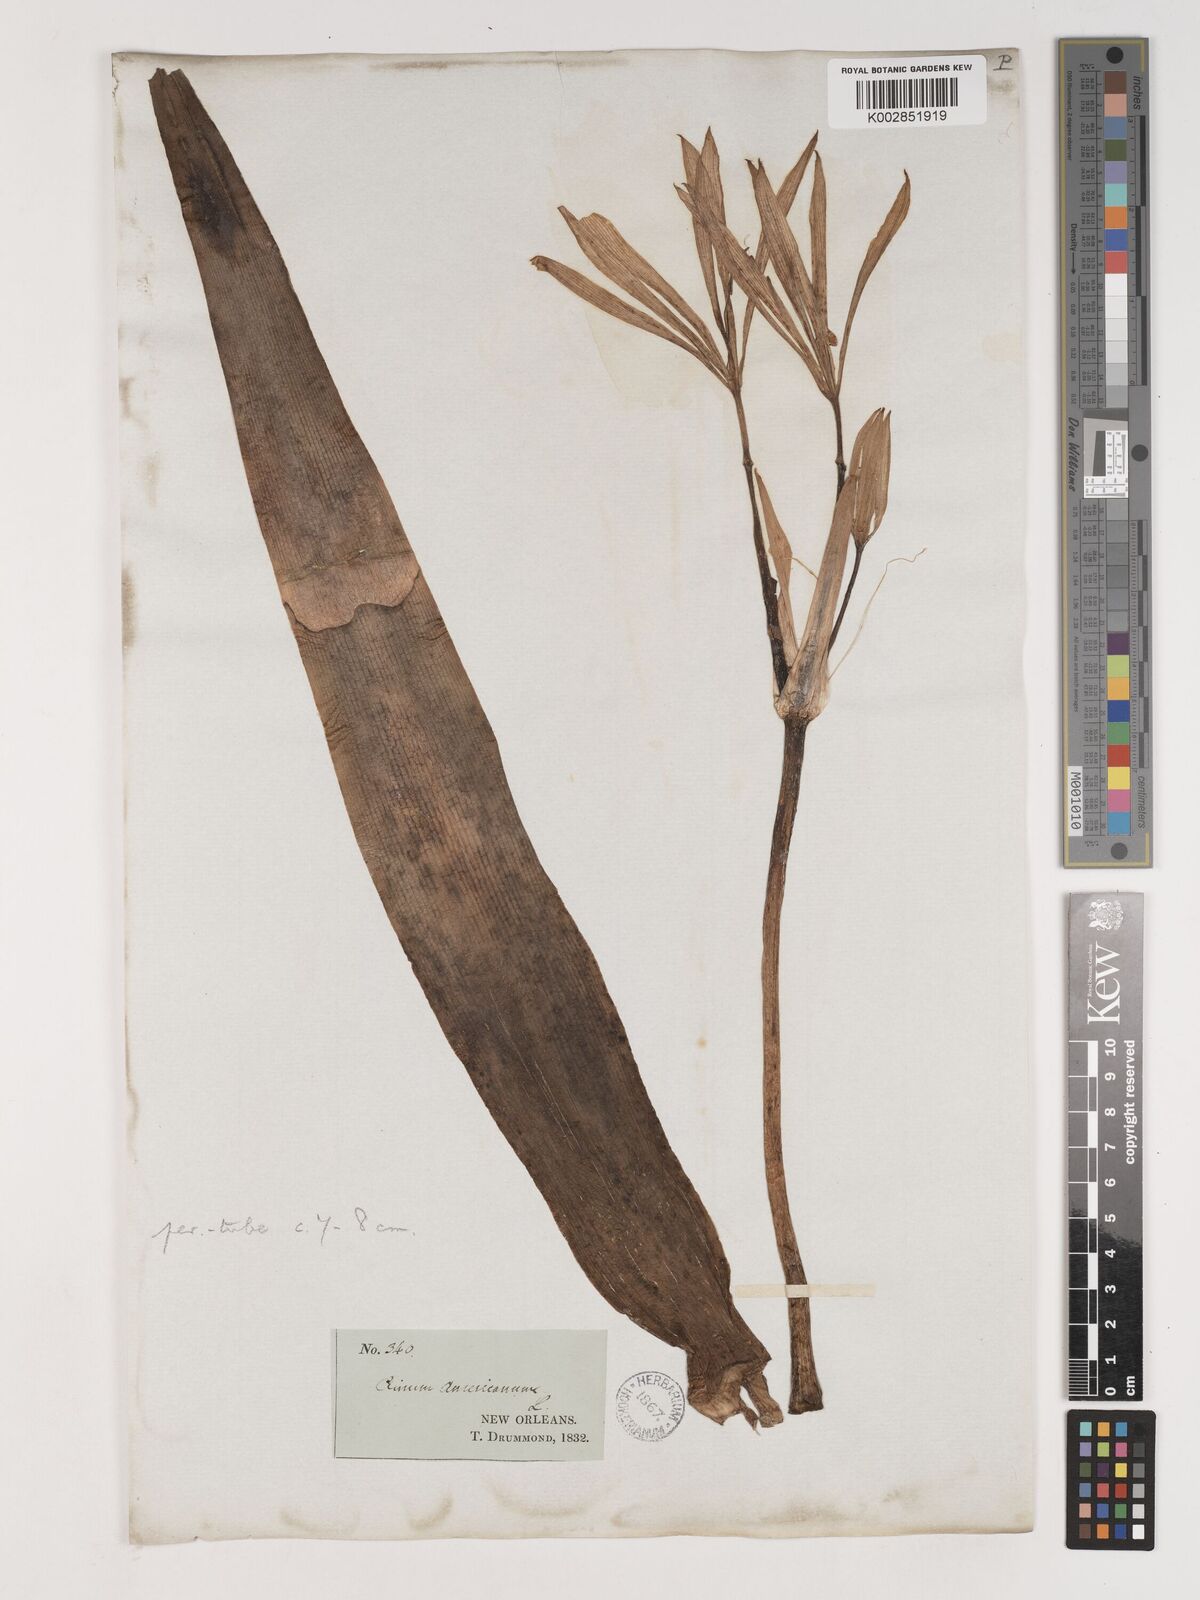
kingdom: Plantae
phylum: Tracheophyta
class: Liliopsida
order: Asparagales
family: Amaryllidaceae
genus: Crinum
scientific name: Crinum americanum
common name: Florida swamp-lily
